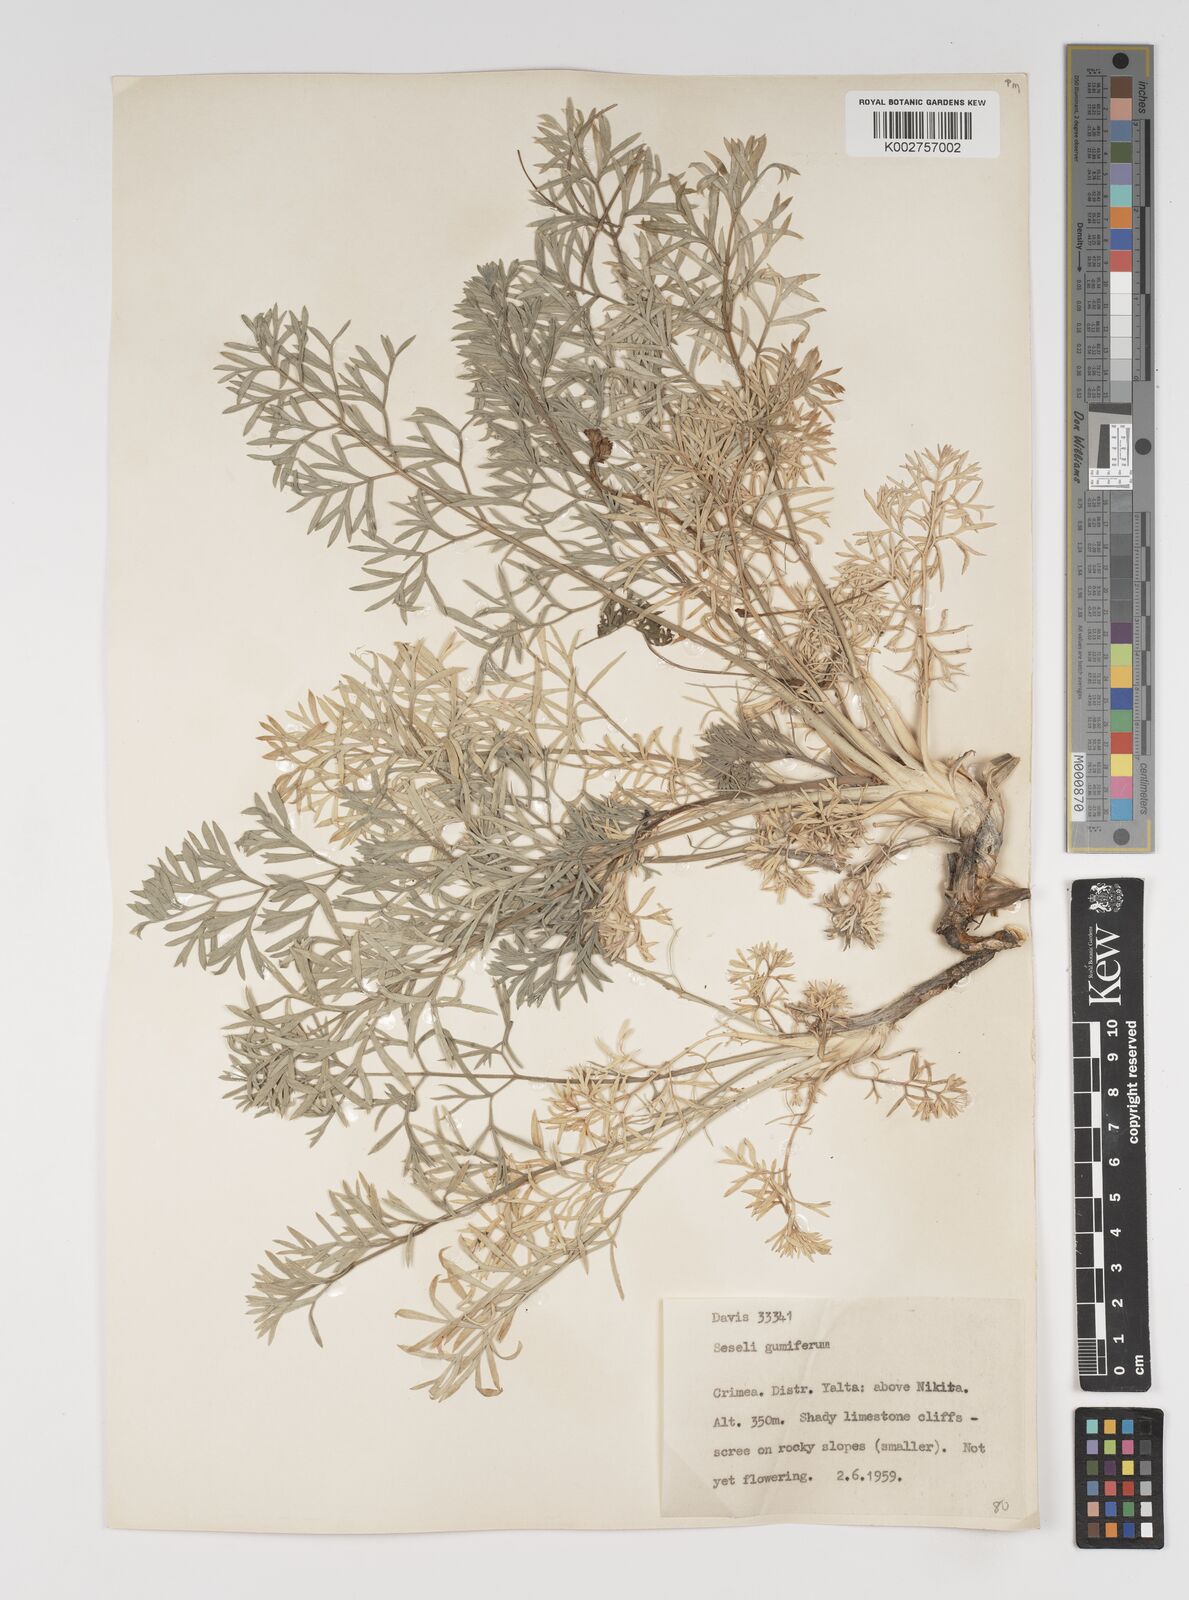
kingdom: Plantae
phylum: Tracheophyta
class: Magnoliopsida
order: Apiales
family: Apiaceae
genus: Seseli
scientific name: Seseli gummiferum
